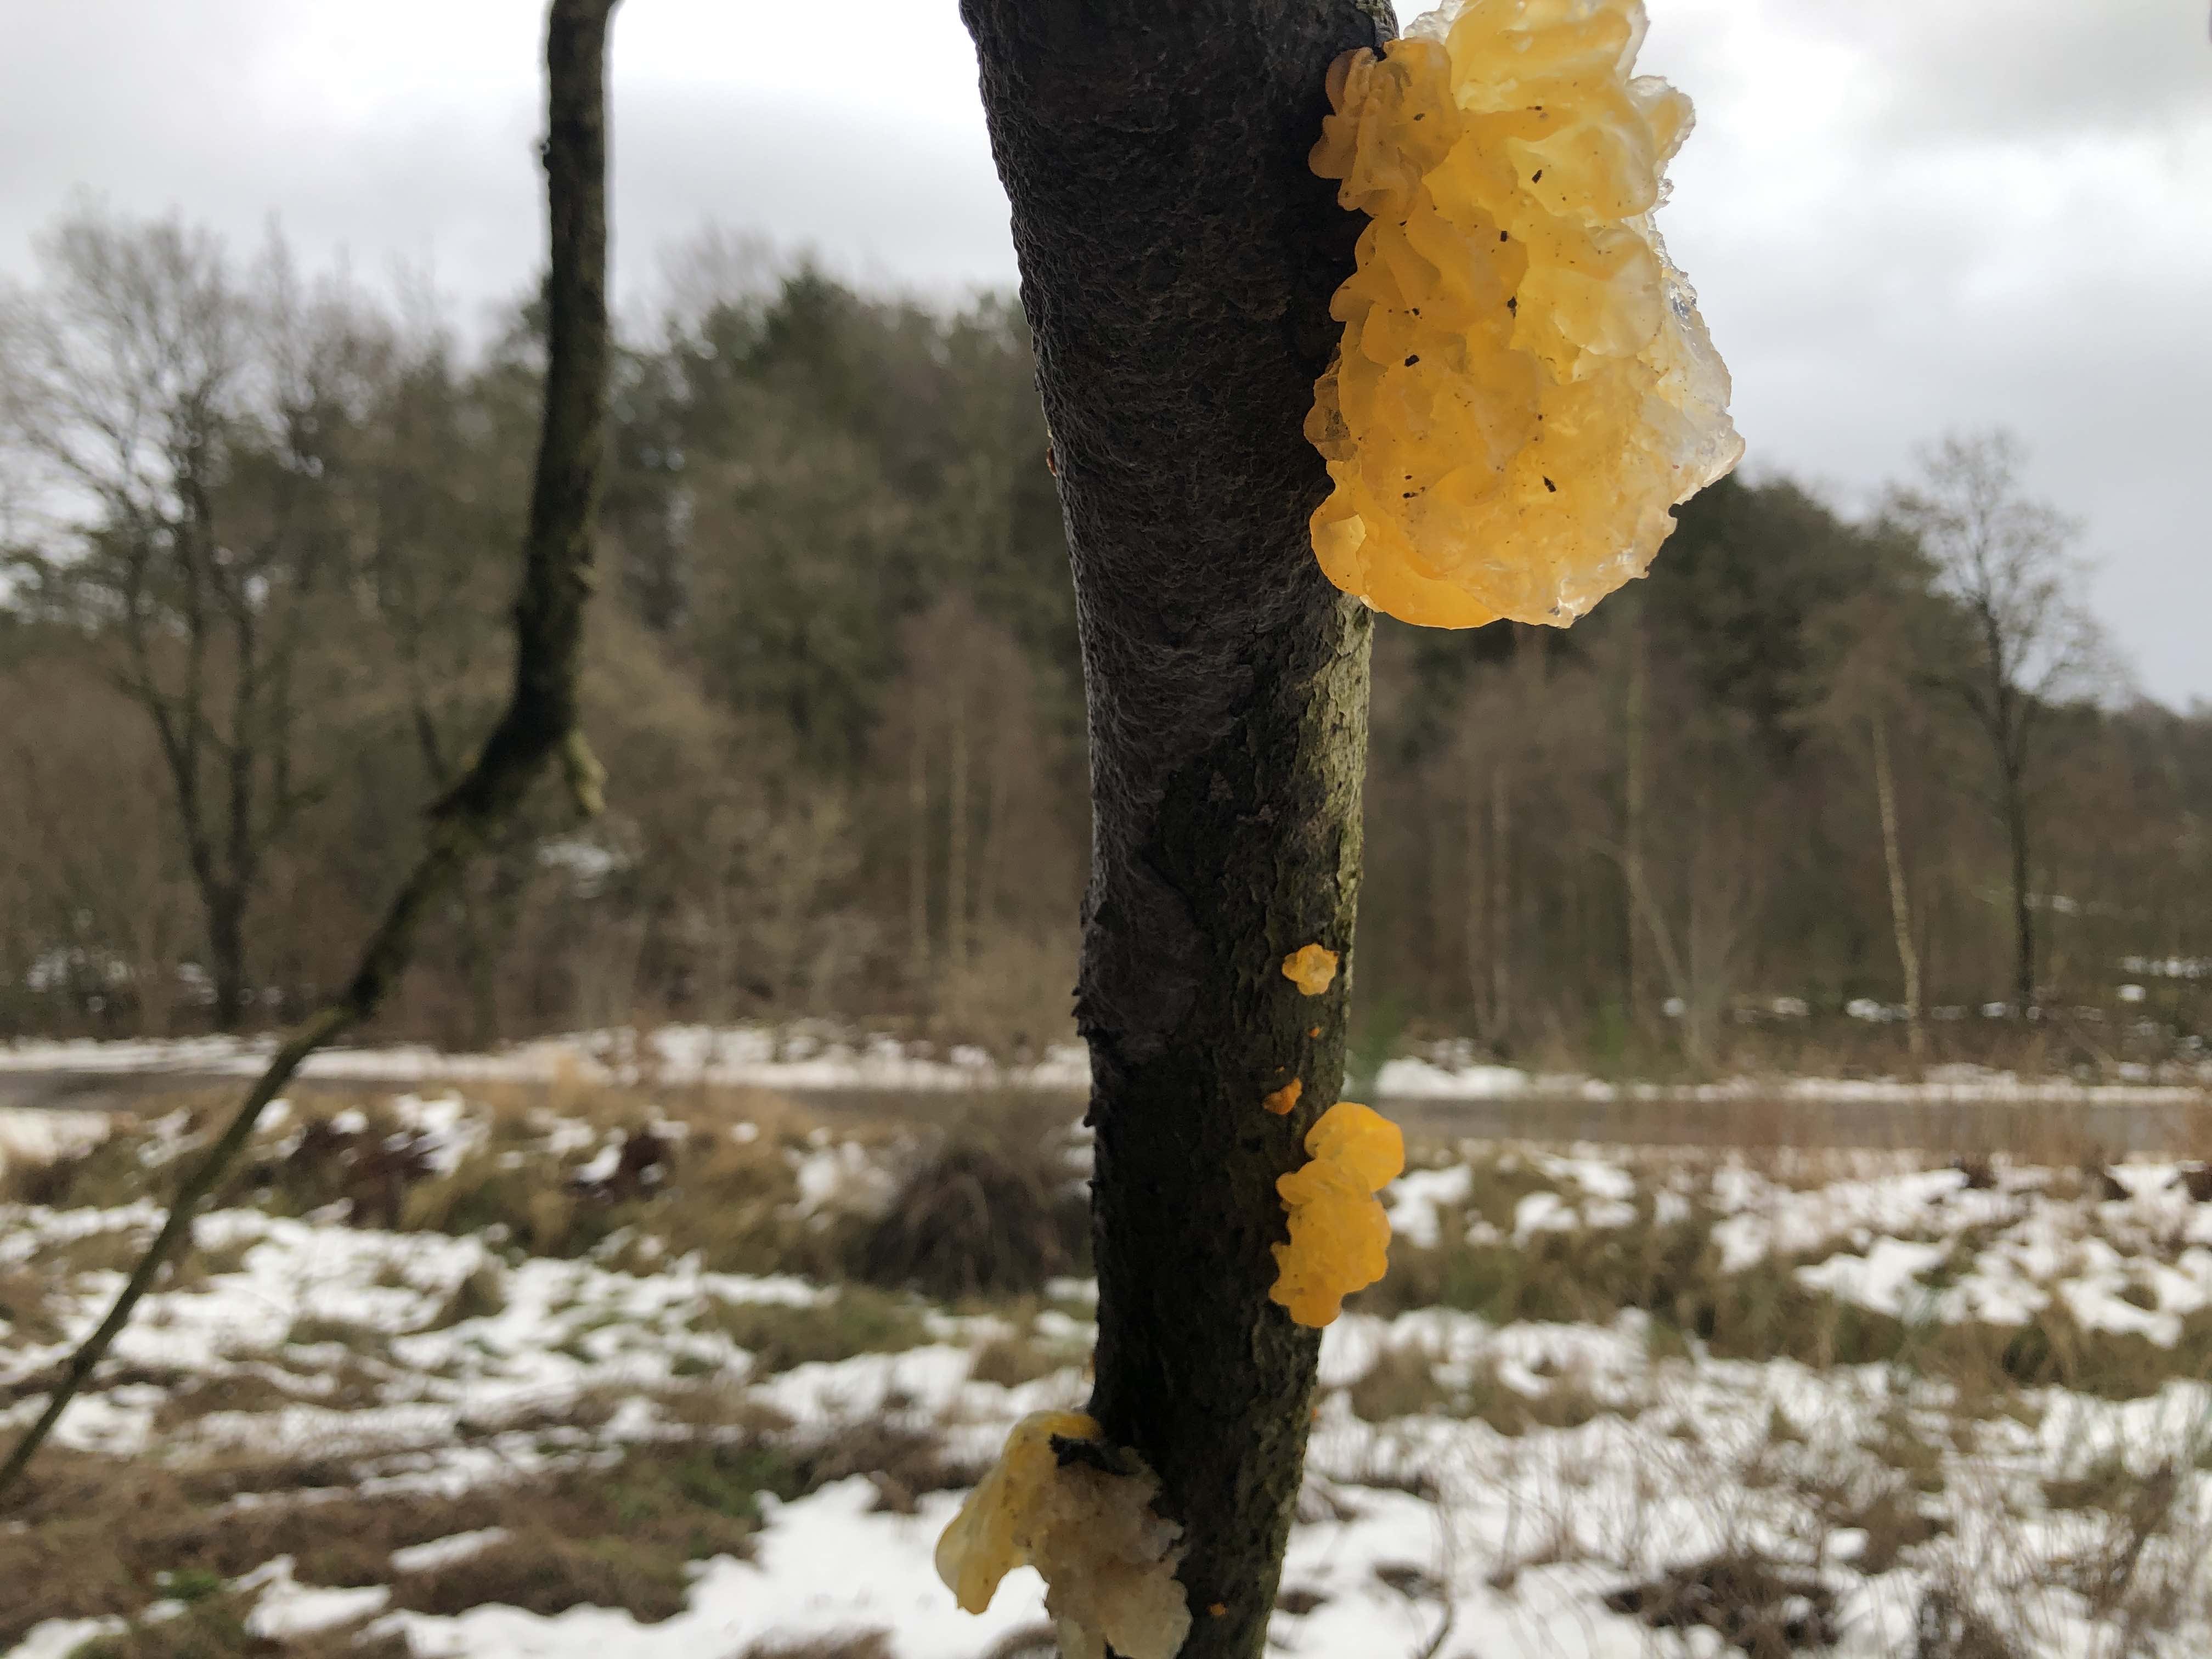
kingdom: Fungi
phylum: Basidiomycota
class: Tremellomycetes
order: Tremellales
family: Tremellaceae
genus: Tremella
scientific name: Tremella mesenterica
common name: gul bævresvamp
